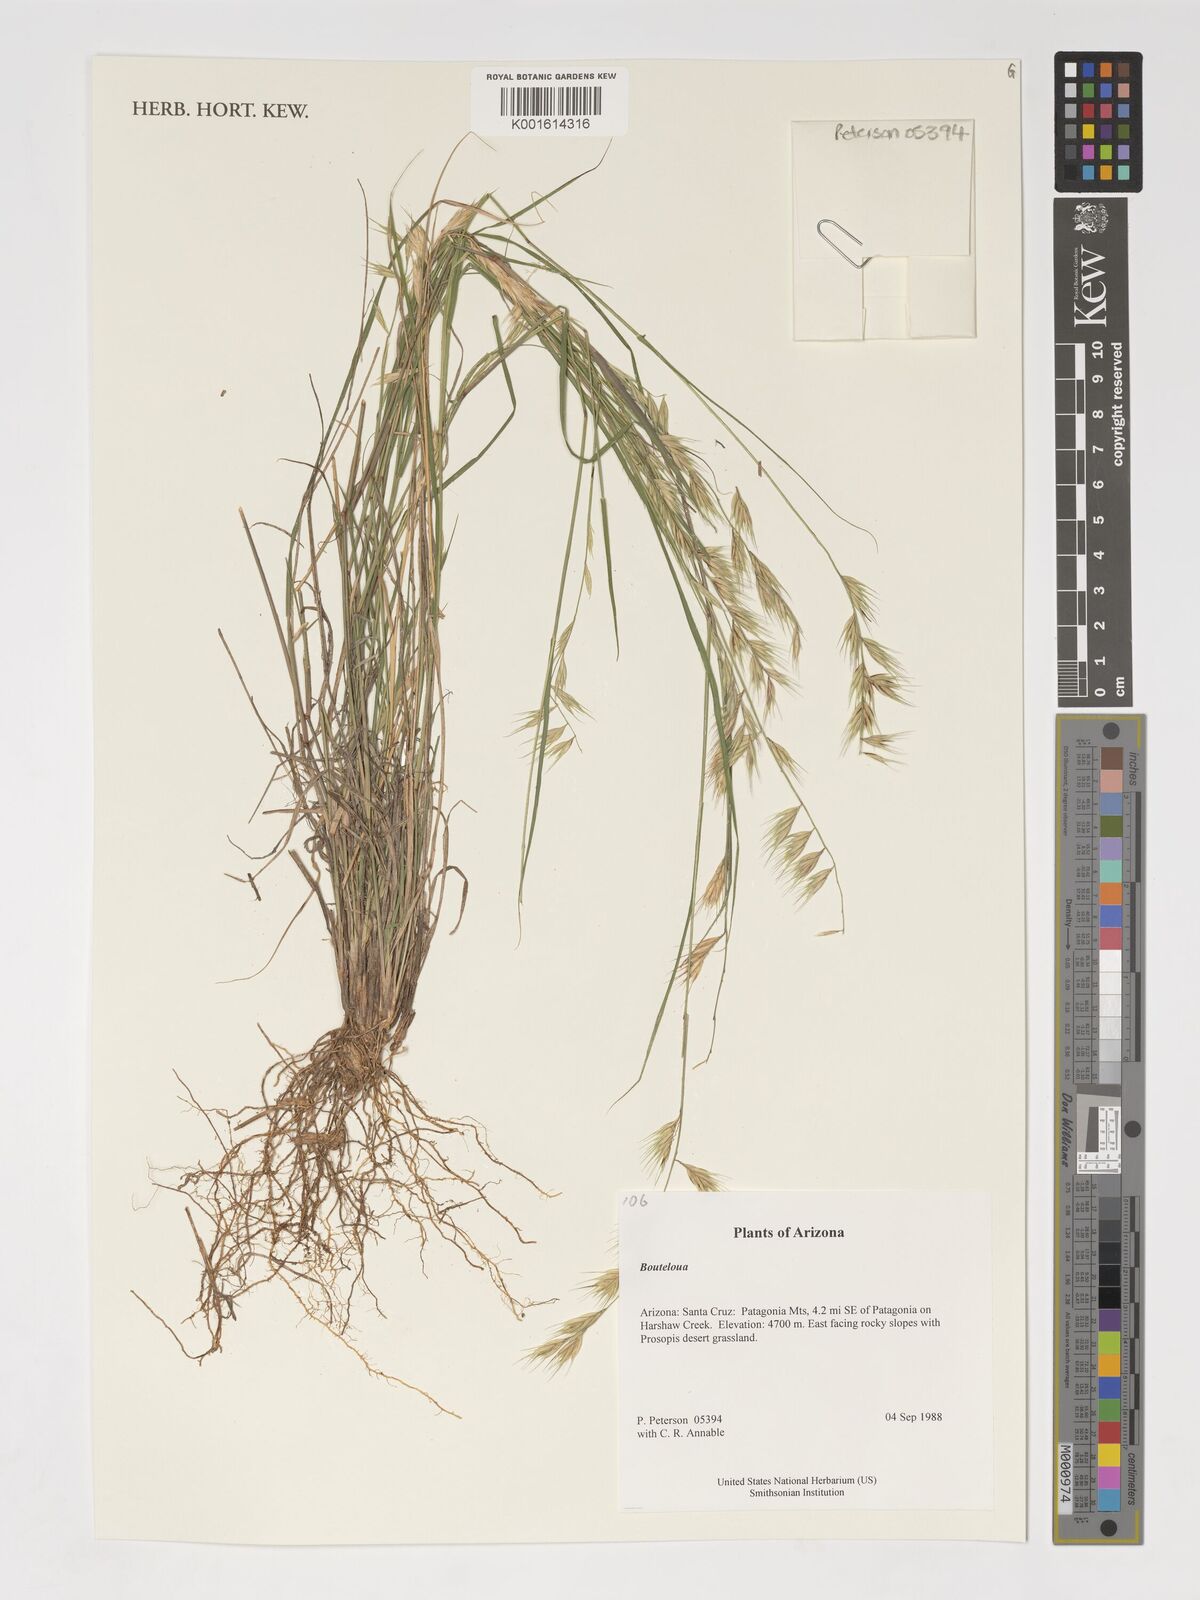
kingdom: Plantae
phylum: Tracheophyta
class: Liliopsida
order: Poales
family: Poaceae
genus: Bouteloua
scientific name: Bouteloua
